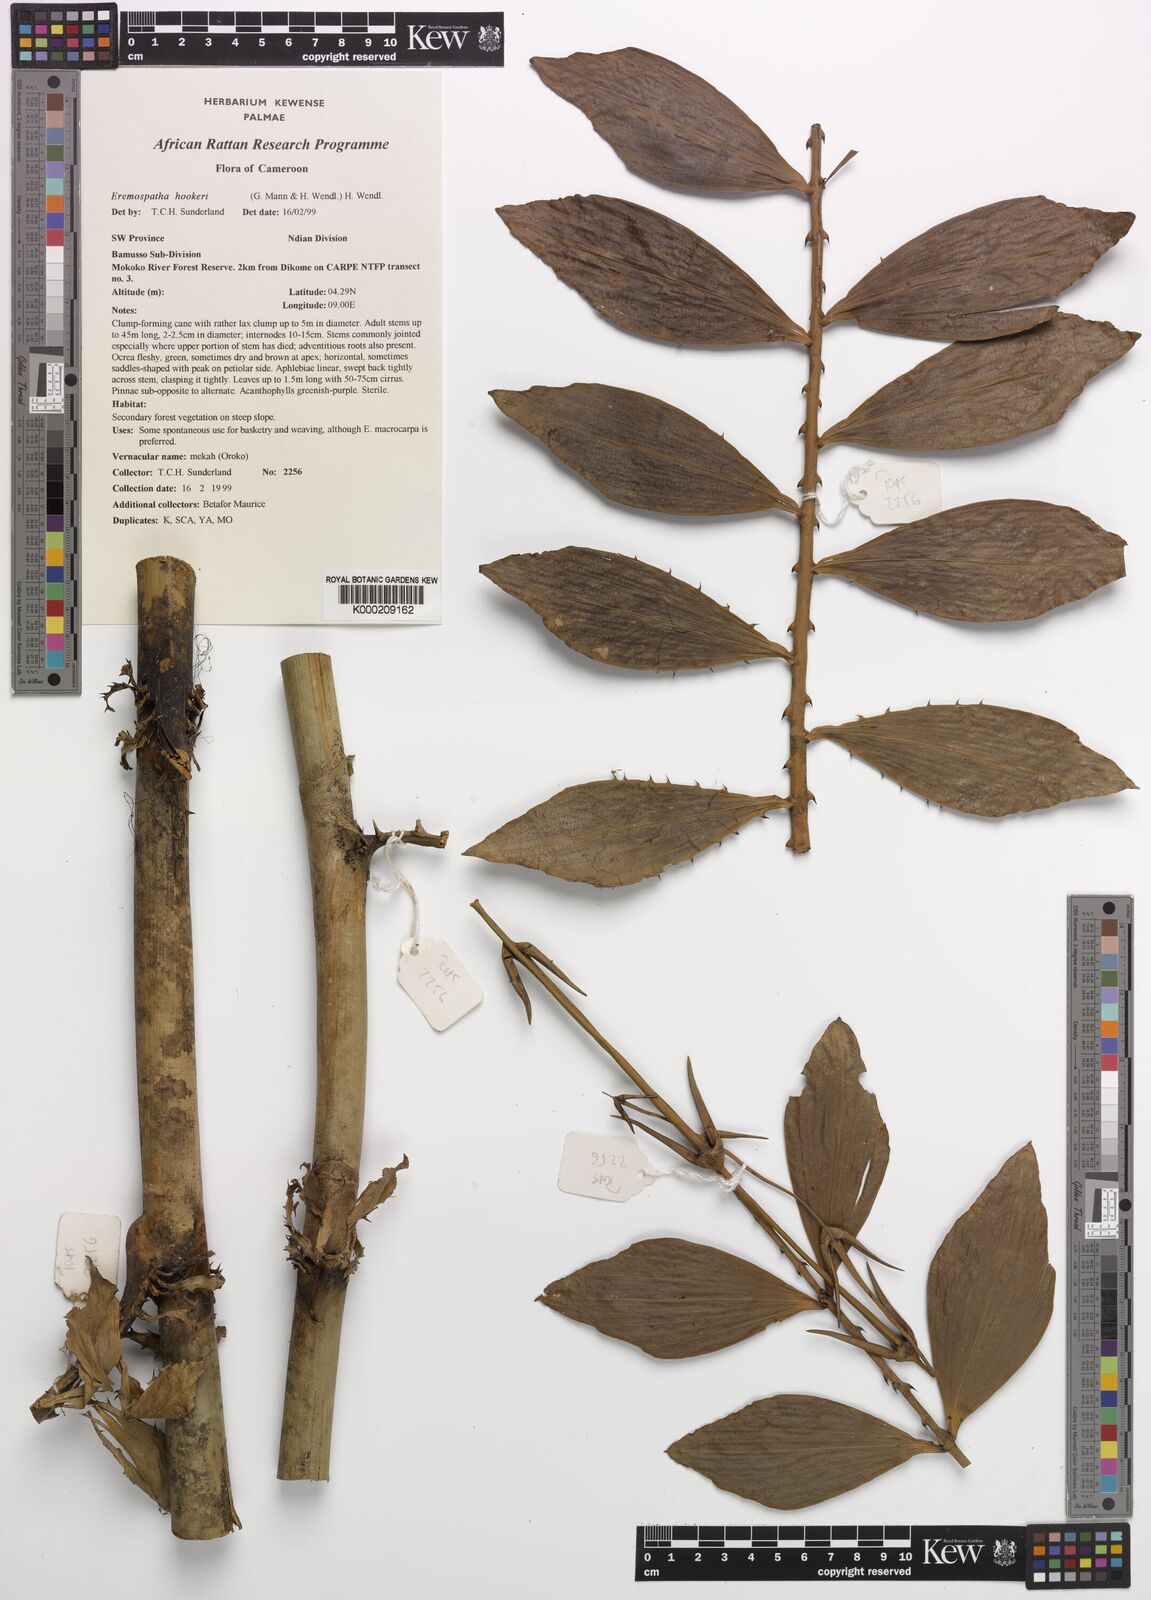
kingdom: Plantae
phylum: Tracheophyta
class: Liliopsida
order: Arecales
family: Arecaceae
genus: Eremospatha
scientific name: Eremospatha hookeri
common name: Rattan
